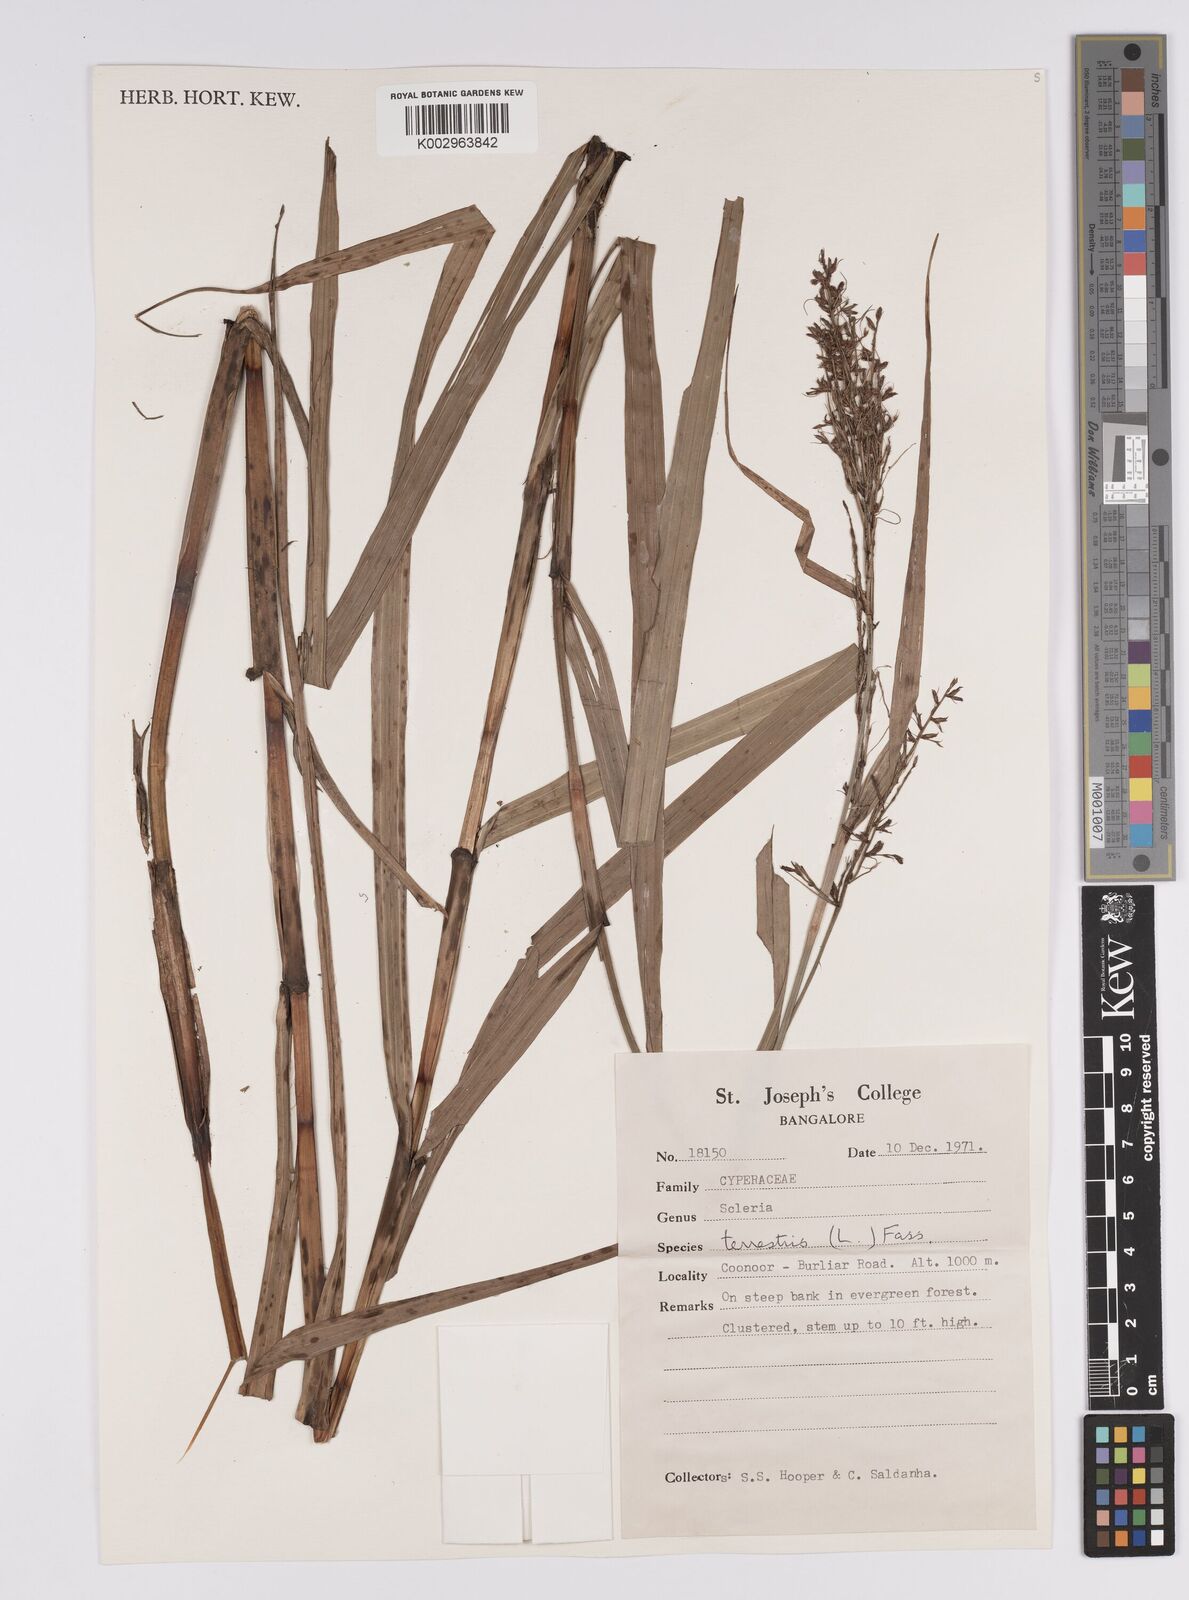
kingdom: Plantae
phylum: Tracheophyta
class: Liliopsida
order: Poales
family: Cyperaceae
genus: Scleria
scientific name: Scleria terrestris
